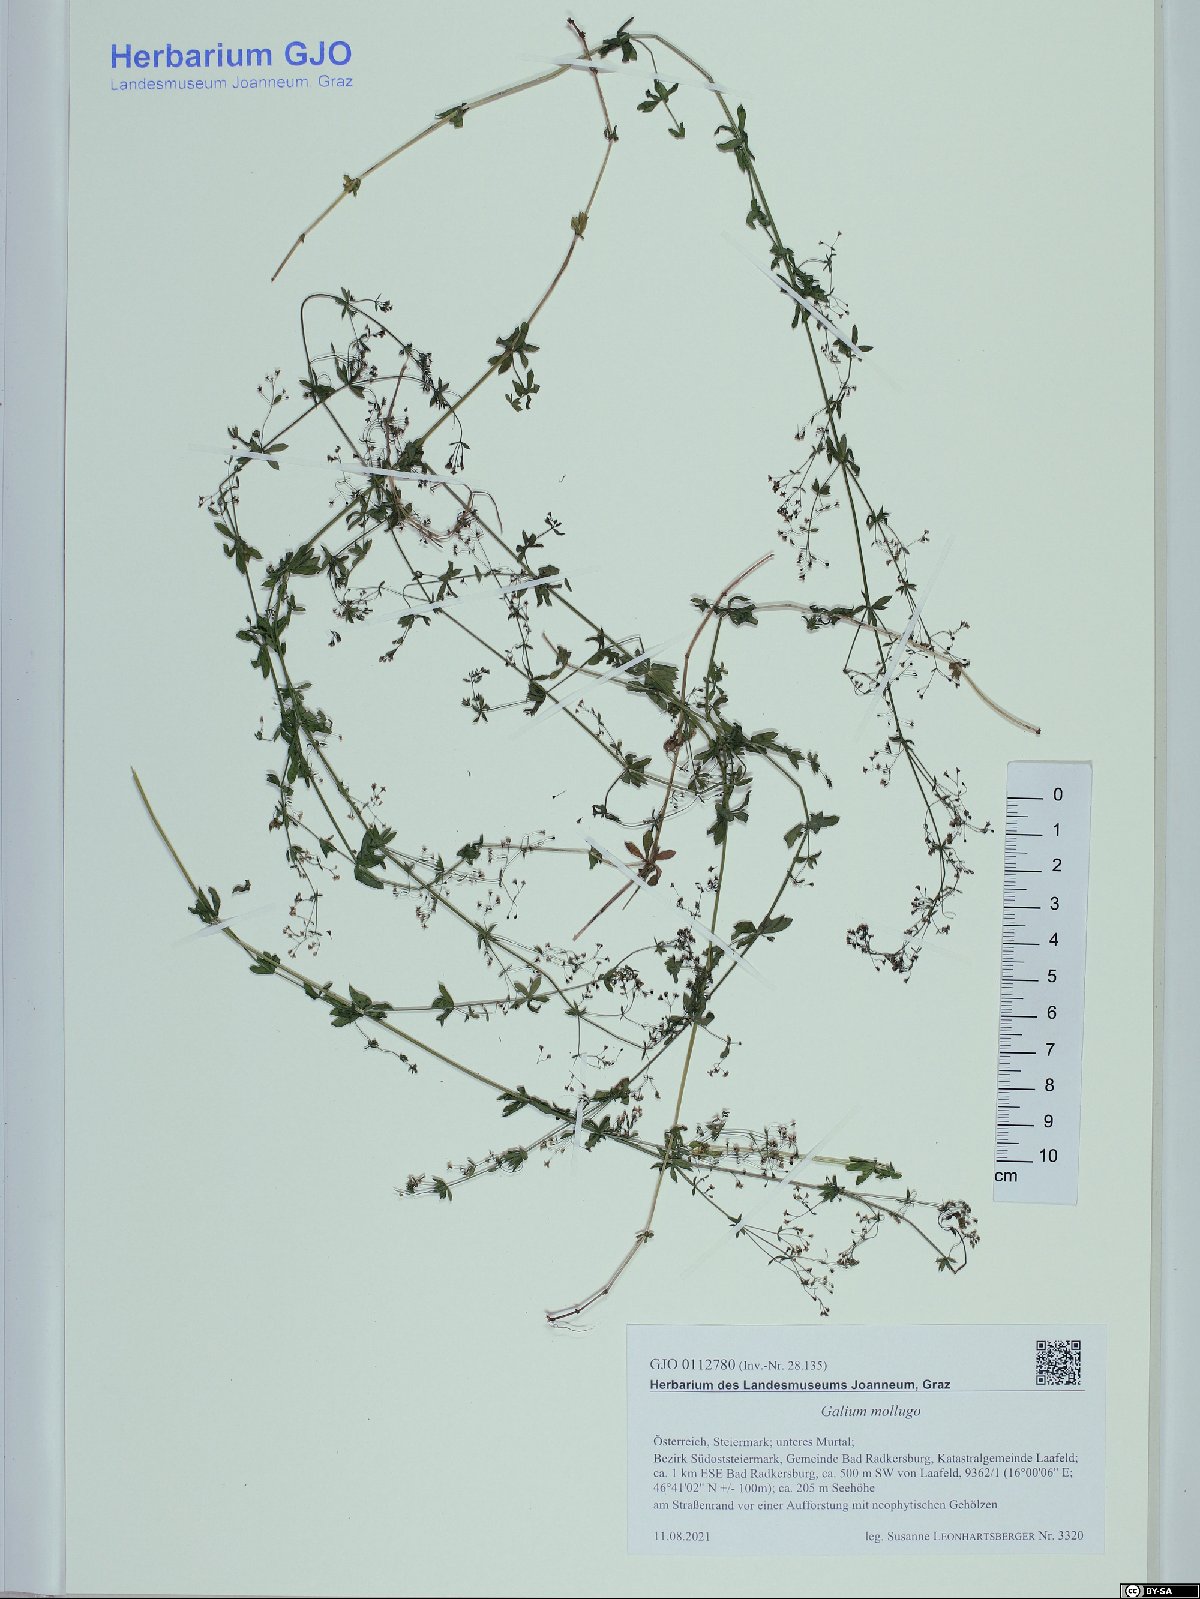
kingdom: Plantae
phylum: Tracheophyta
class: Magnoliopsida
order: Gentianales
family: Rubiaceae
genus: Galium
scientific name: Galium mollugo
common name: Hedge bedstraw
